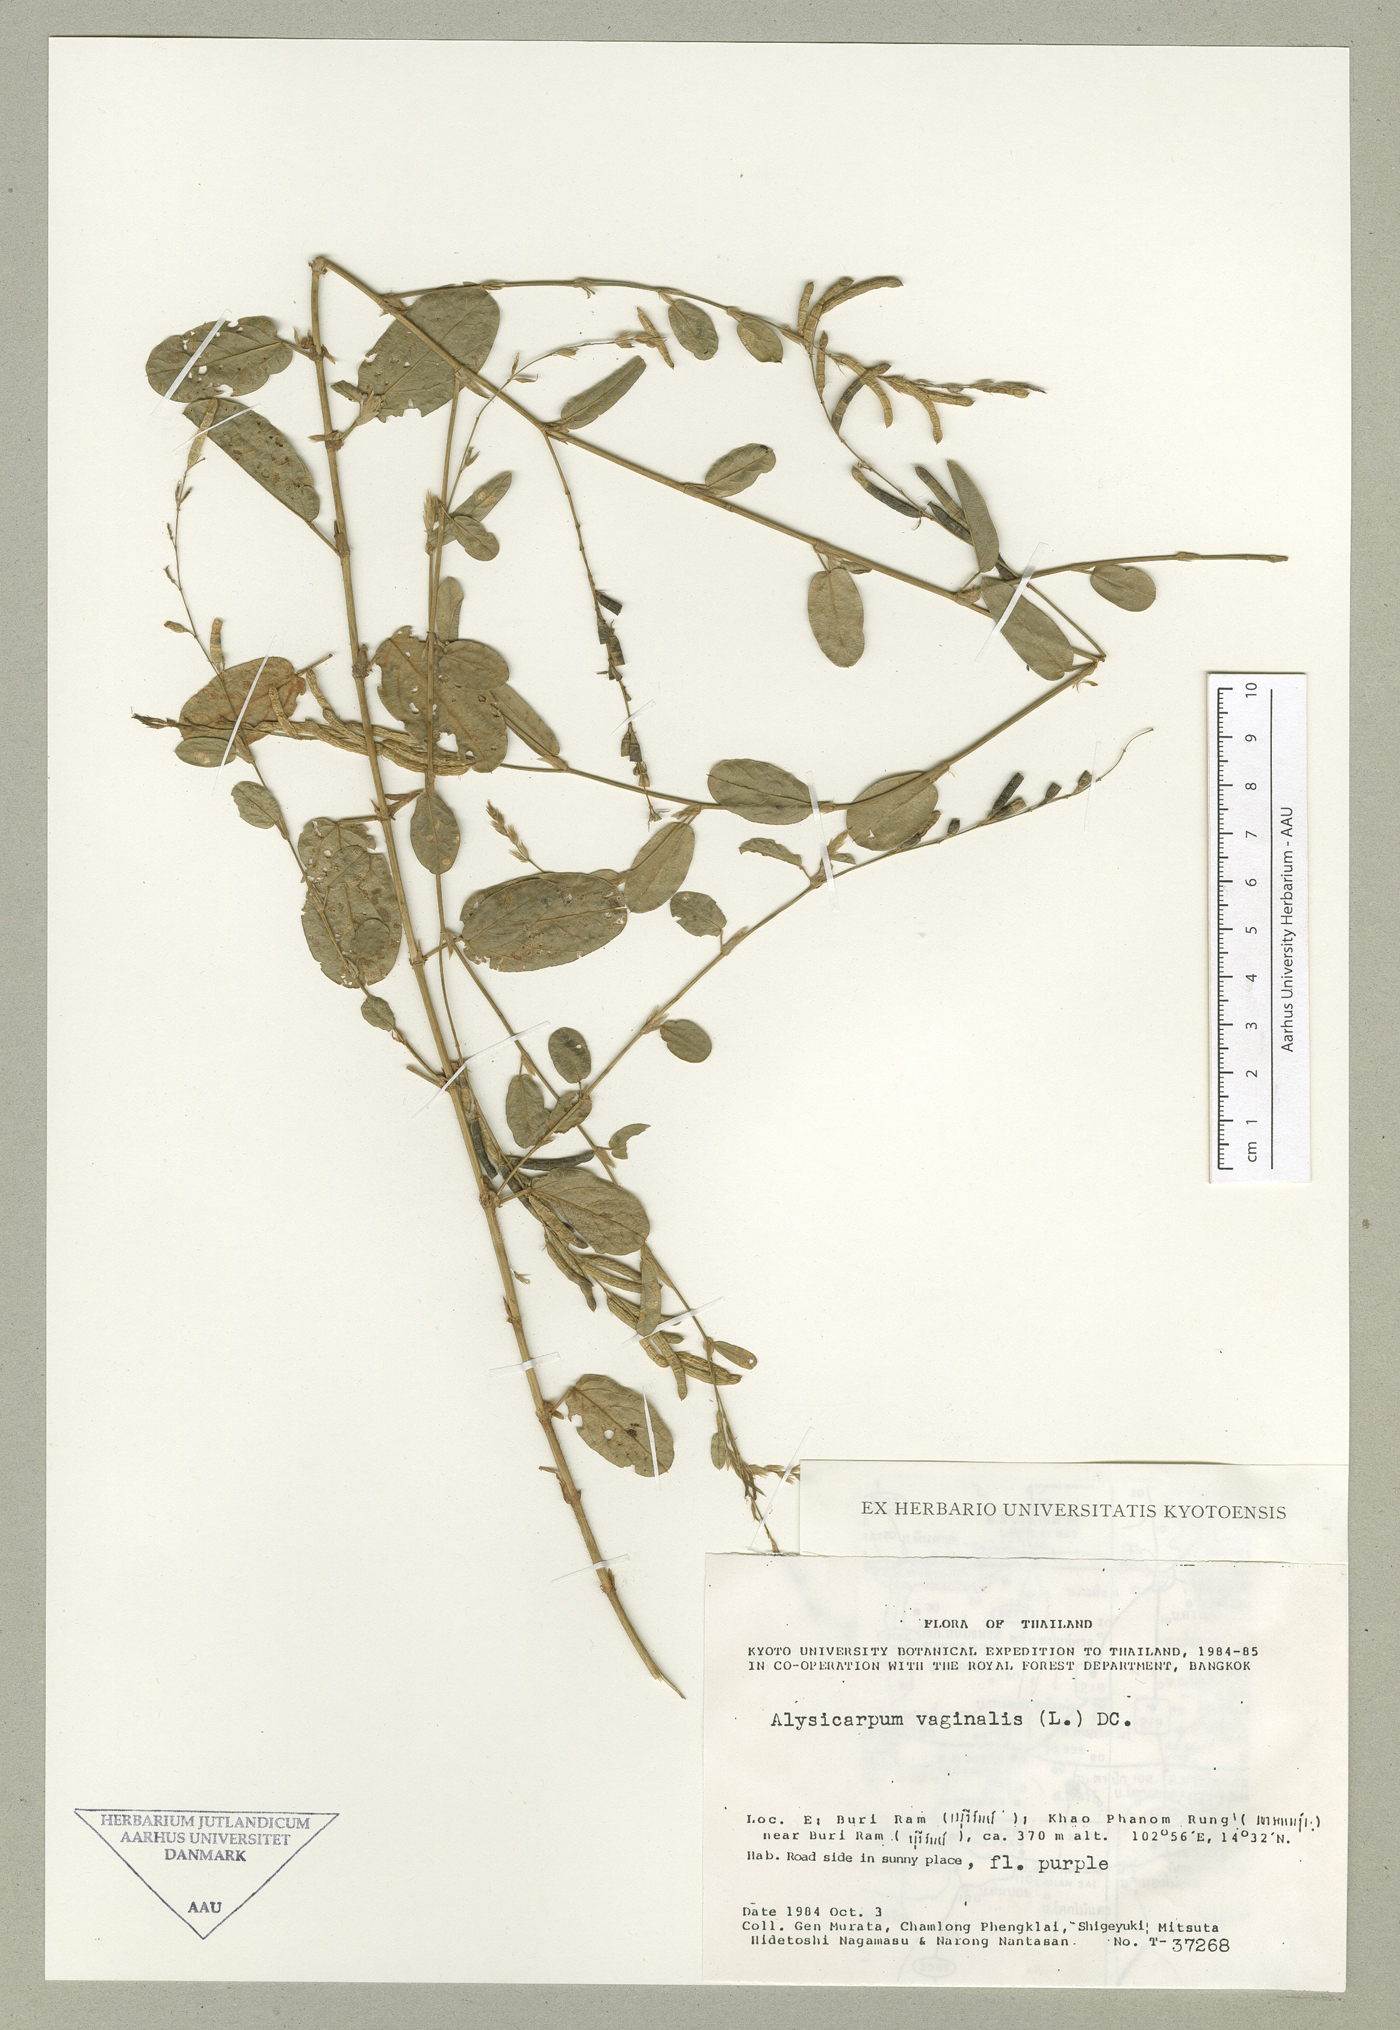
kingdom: Plantae
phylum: Tracheophyta
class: Magnoliopsida
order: Fabales
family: Fabaceae
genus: Alysicarpus
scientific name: Alysicarpus vaginalis
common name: White moneywort
